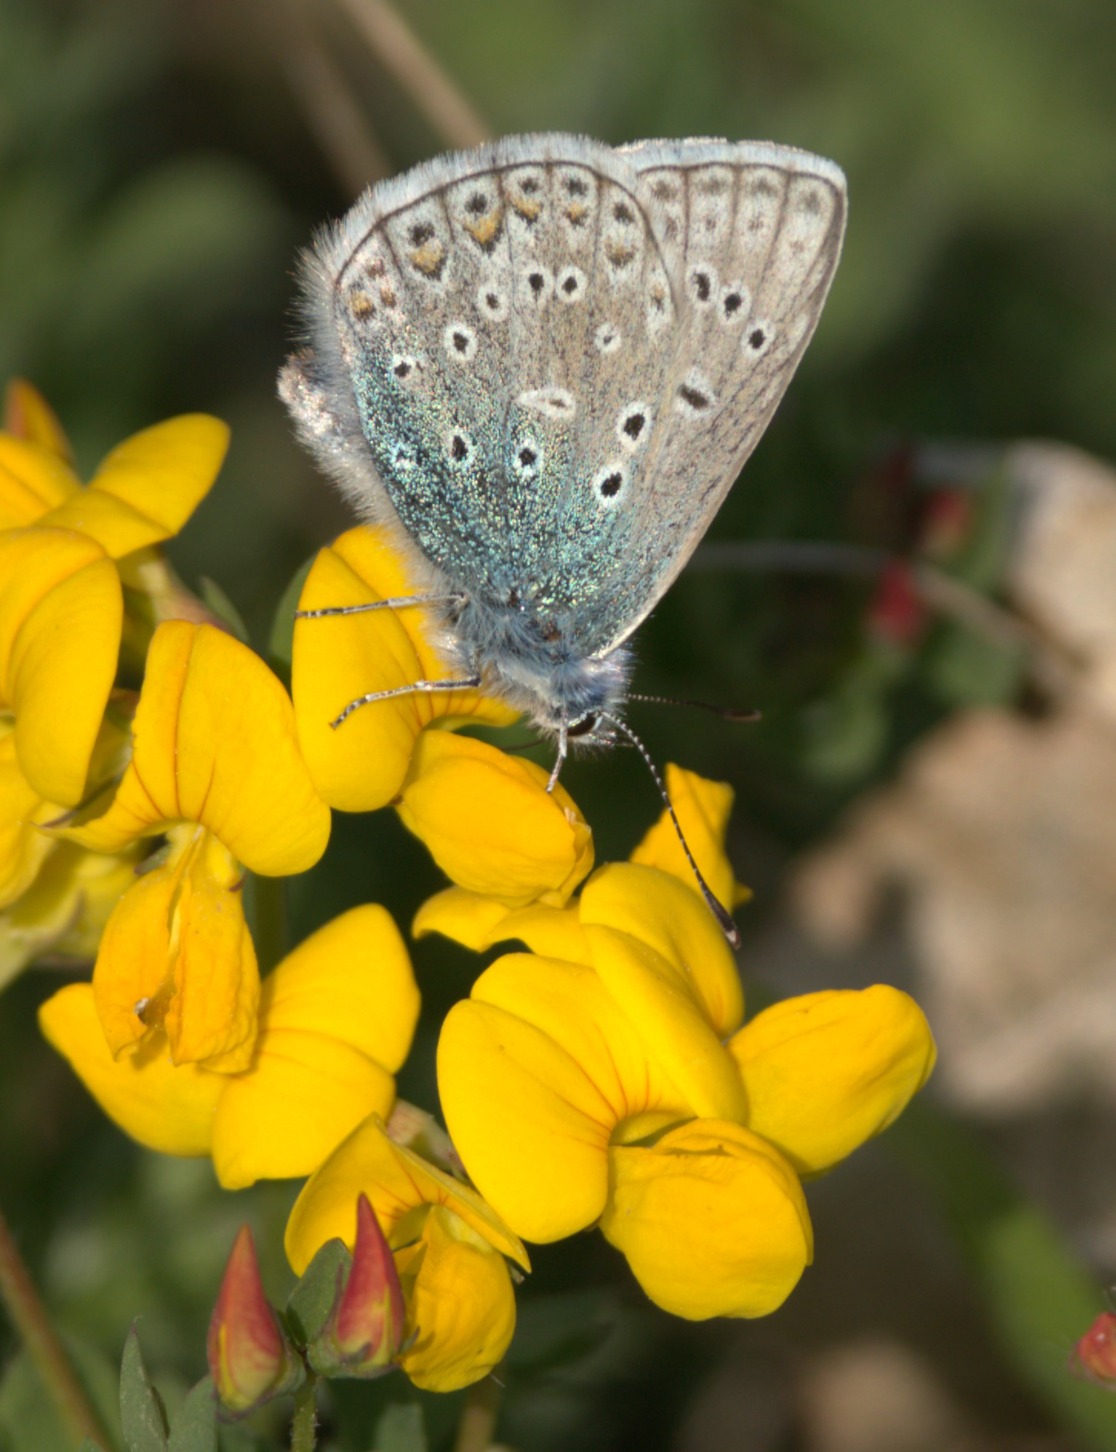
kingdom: Animalia
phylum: Arthropoda
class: Insecta
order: Lepidoptera
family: Lycaenidae
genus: Polyommatus
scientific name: Polyommatus icarus
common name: Almindelig blåfugl
